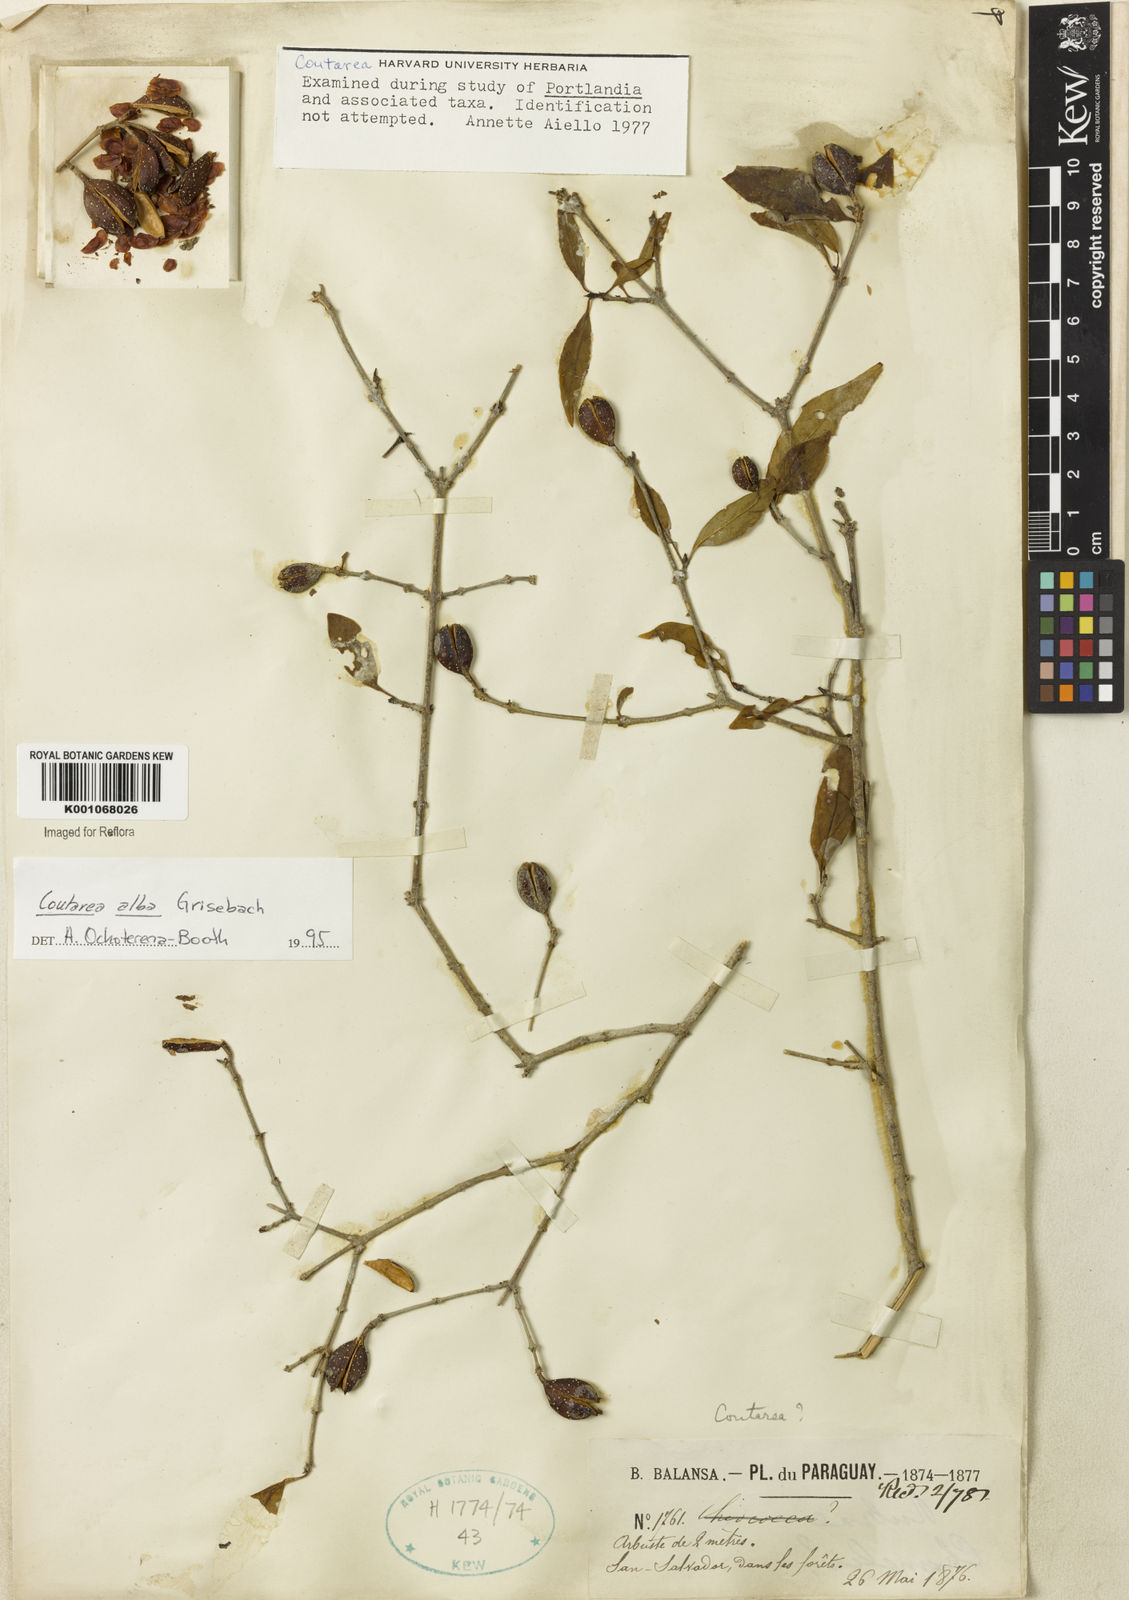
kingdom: Plantae
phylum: Tracheophyta
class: Magnoliopsida
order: Gentianales
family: Rubiaceae
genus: Coutarea
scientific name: Coutarea alba
